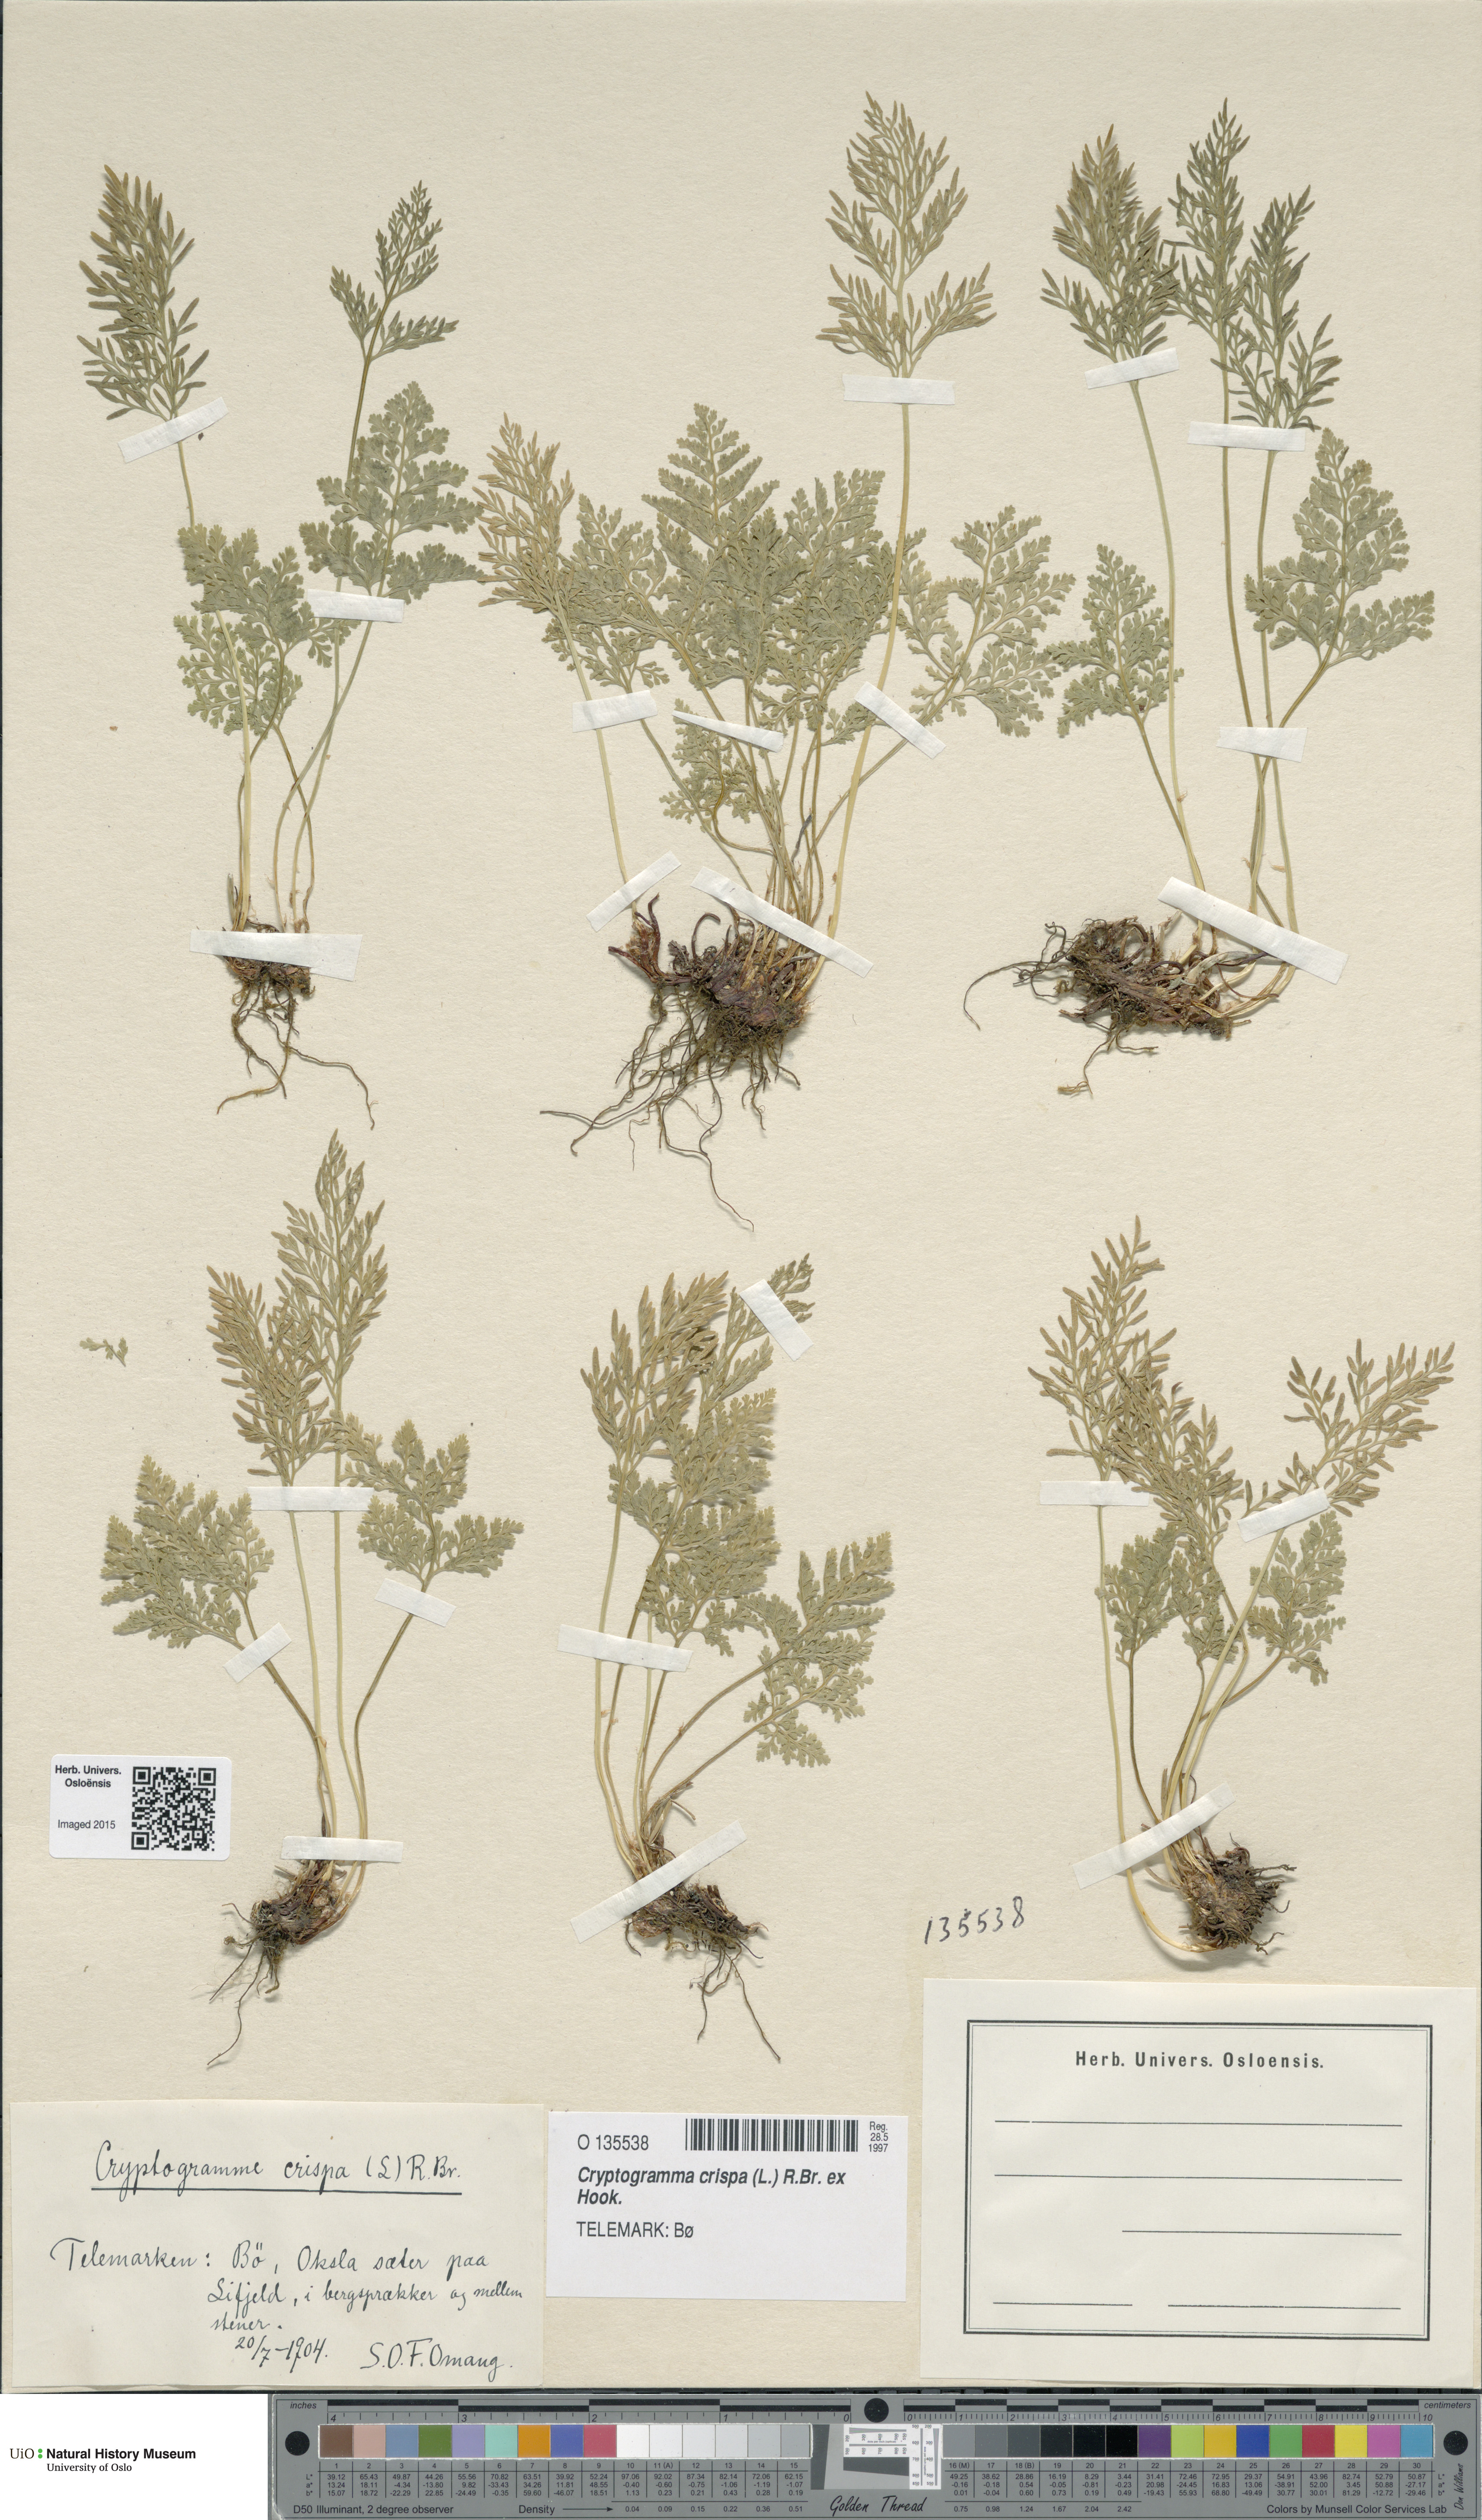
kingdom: Plantae
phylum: Tracheophyta
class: Polypodiopsida
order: Polypodiales
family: Pteridaceae
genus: Cryptogramma
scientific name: Cryptogramma crispa
